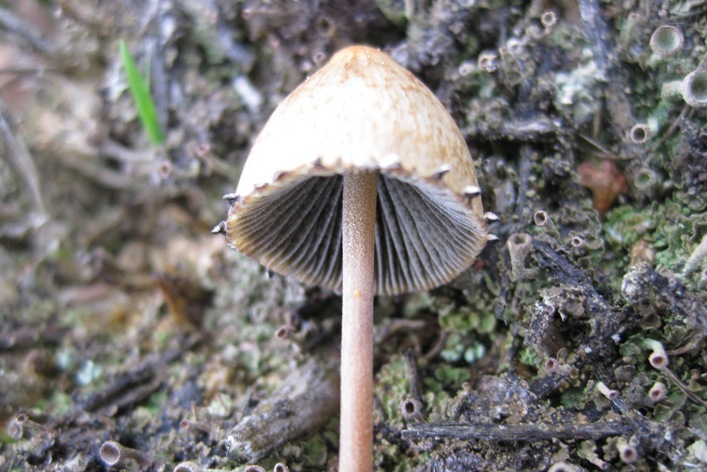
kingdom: Fungi
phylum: Basidiomycota
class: Agaricomycetes
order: Agaricales
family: Bolbitiaceae
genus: Panaeolus
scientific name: Panaeolus papilionaceus
